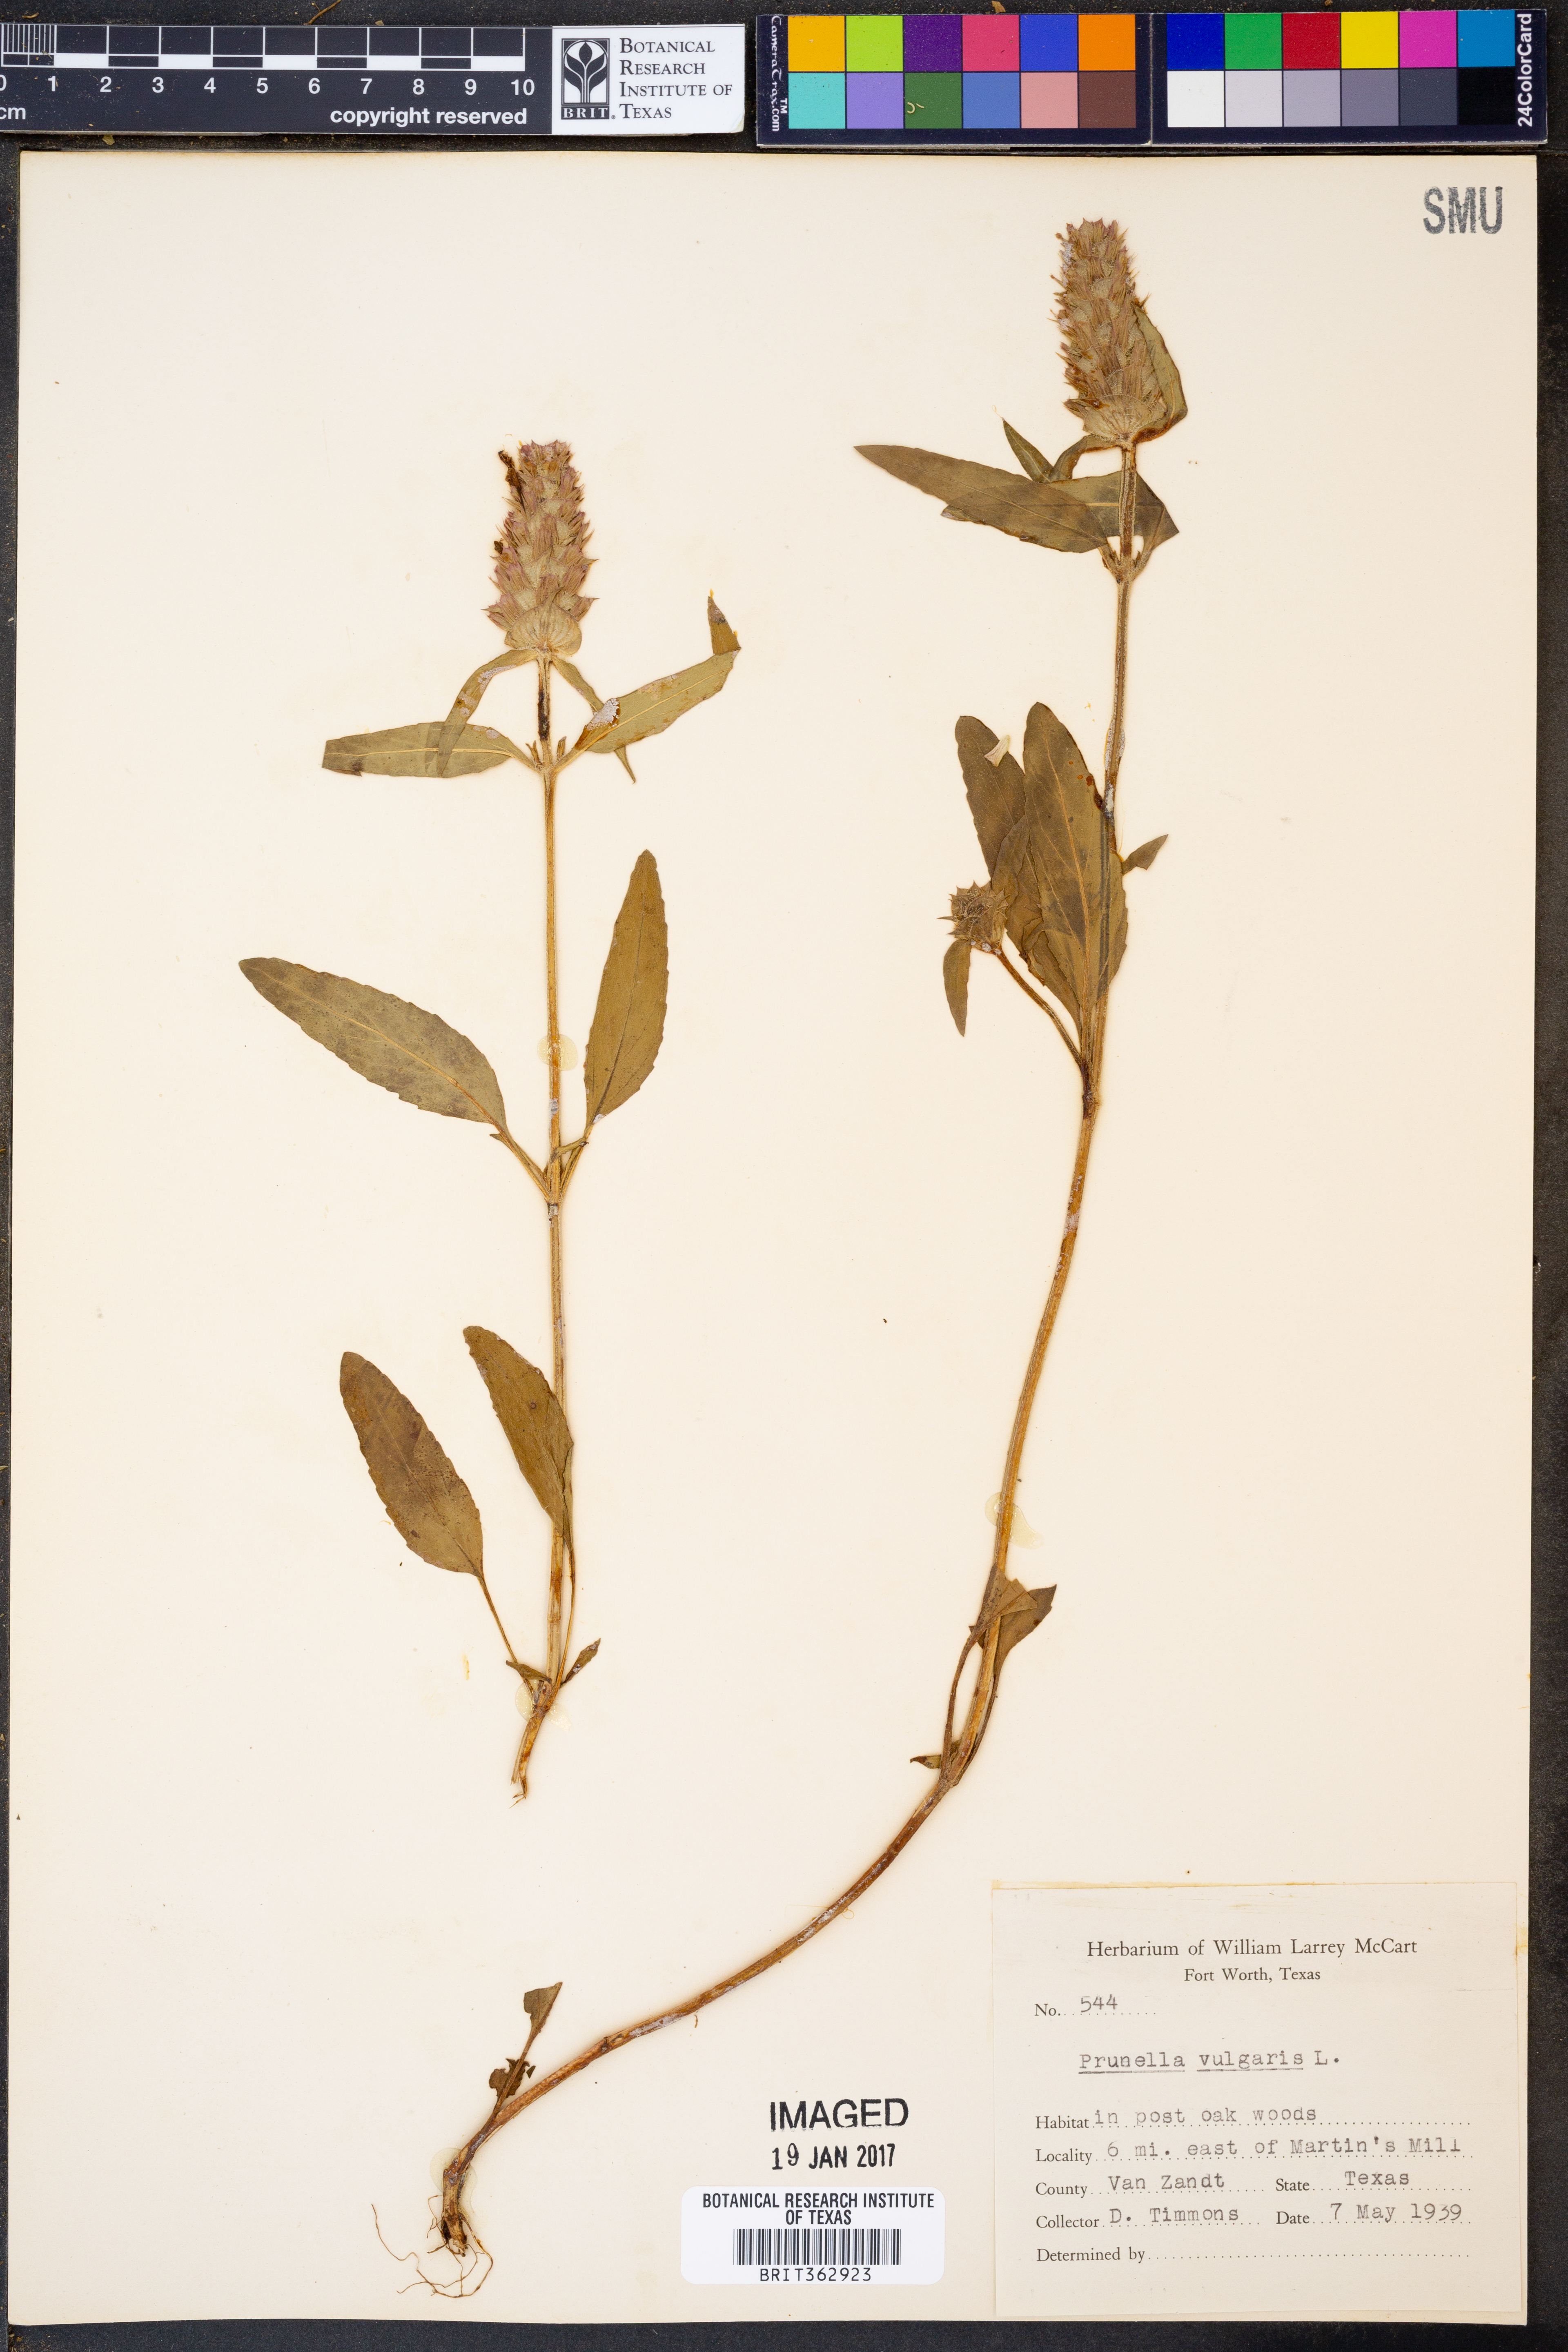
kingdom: Plantae
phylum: Tracheophyta
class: Magnoliopsida
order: Lamiales
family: Lamiaceae
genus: Prunella
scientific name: Prunella vulgaris
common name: Heal-all
